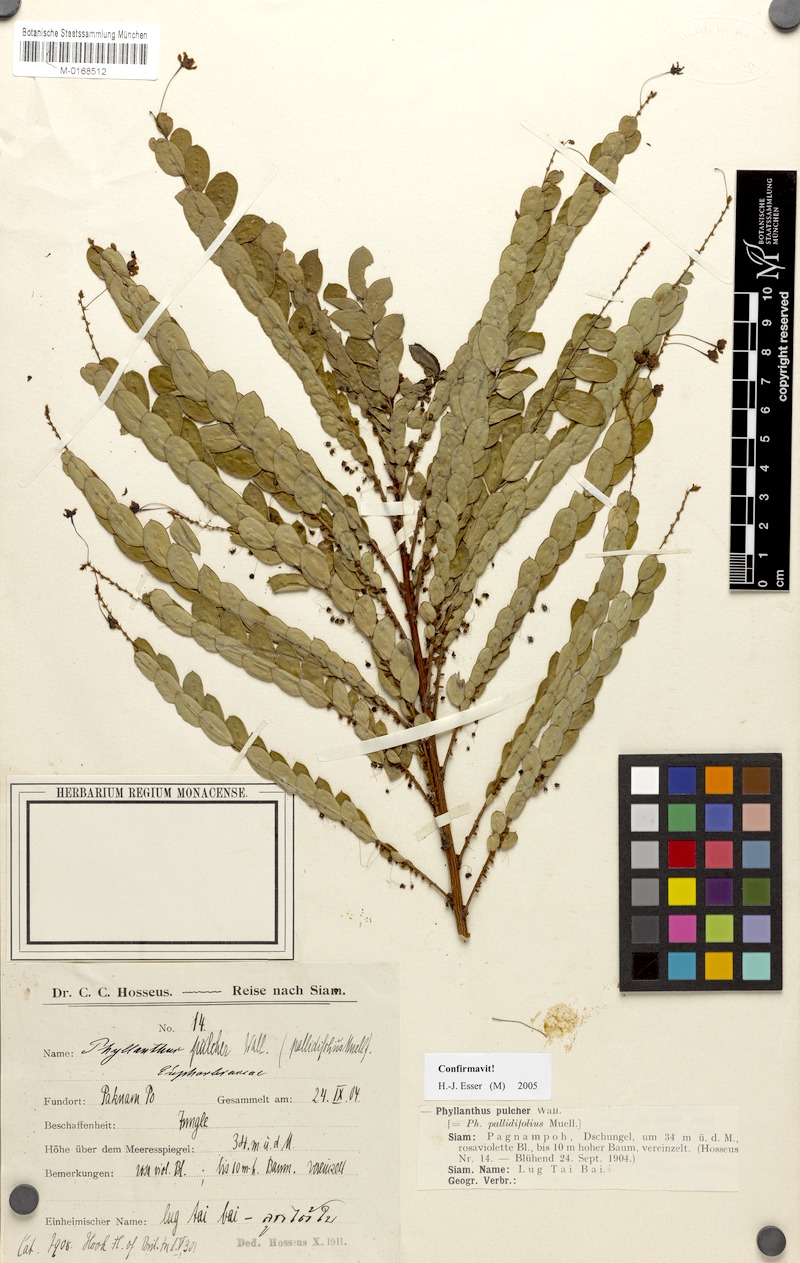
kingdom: Plantae
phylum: Tracheophyta
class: Magnoliopsida
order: Malpighiales
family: Phyllanthaceae
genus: Phyllanthus
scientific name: Phyllanthus pulcher
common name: Dragon-of-the-world
